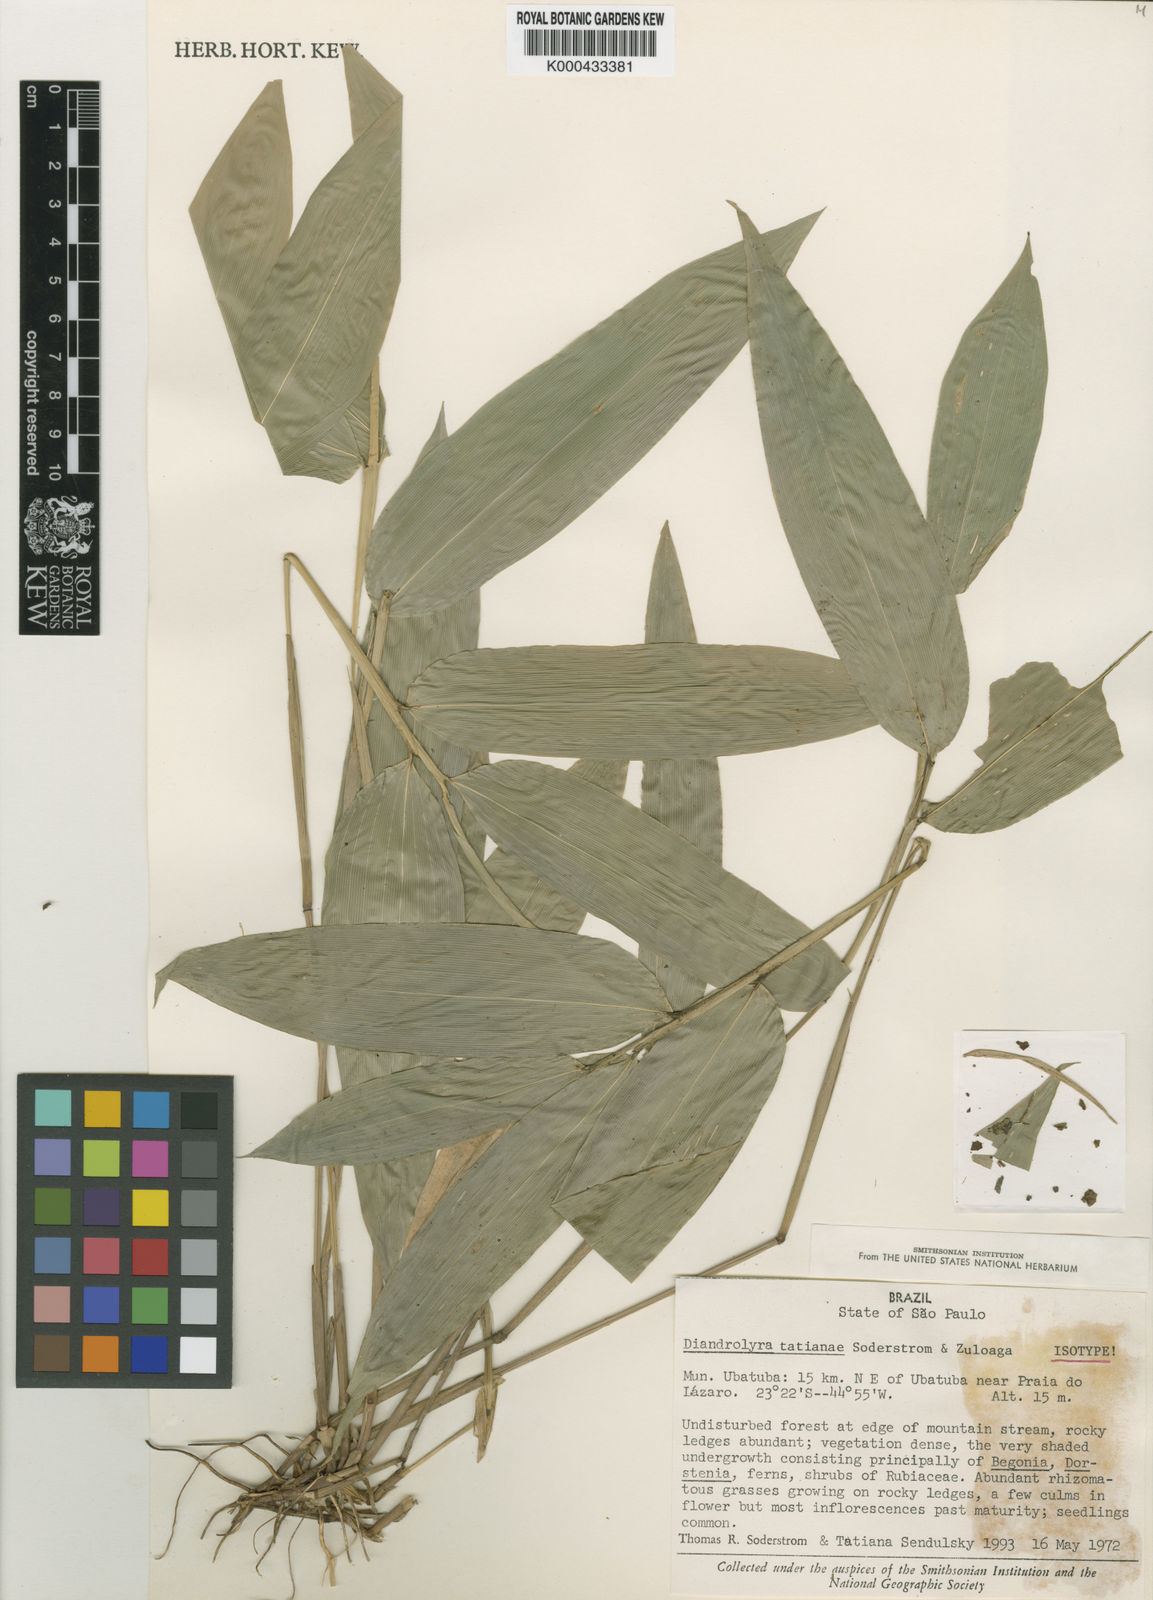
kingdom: Plantae
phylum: Tracheophyta
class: Liliopsida
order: Poales
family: Poaceae
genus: Diandrolyra
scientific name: Diandrolyra tatianae
